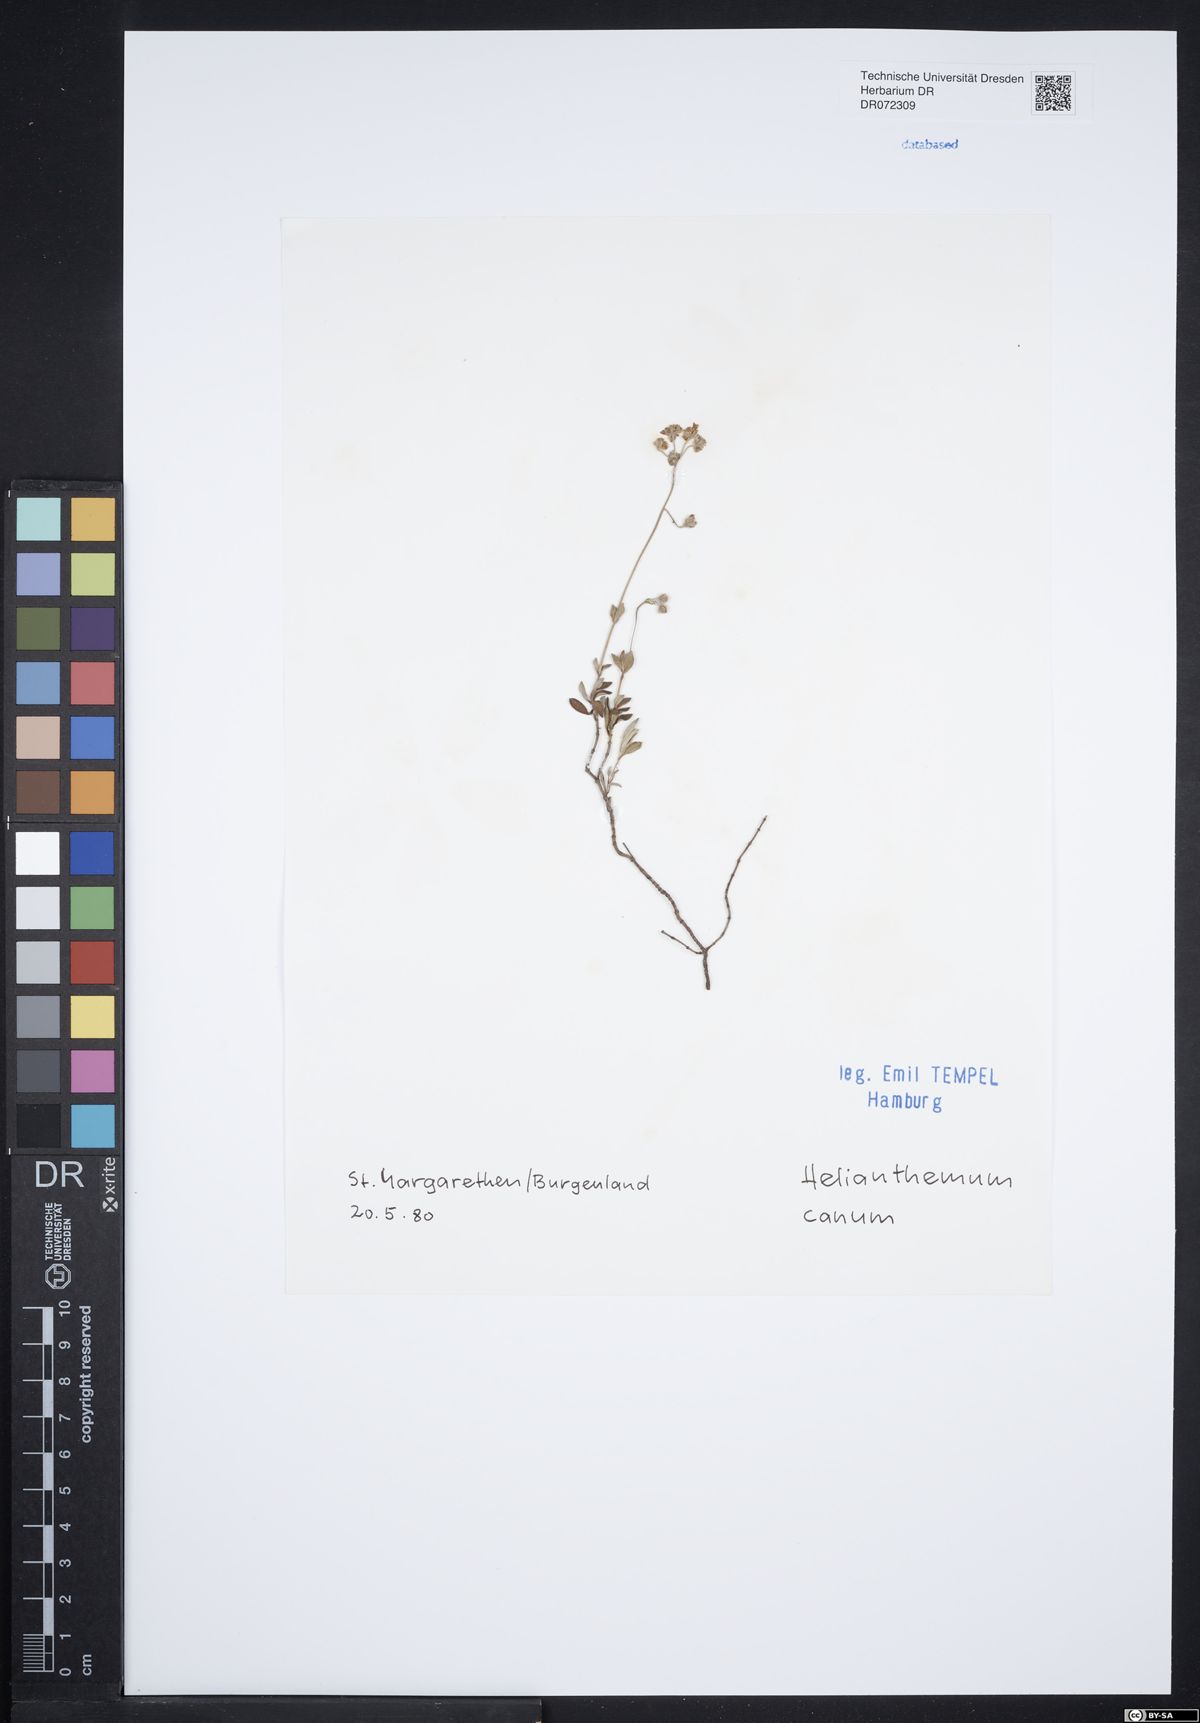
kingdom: Plantae
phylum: Tracheophyta
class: Magnoliopsida
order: Malvales
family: Cistaceae
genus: Helianthemum
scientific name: Helianthemum canum
